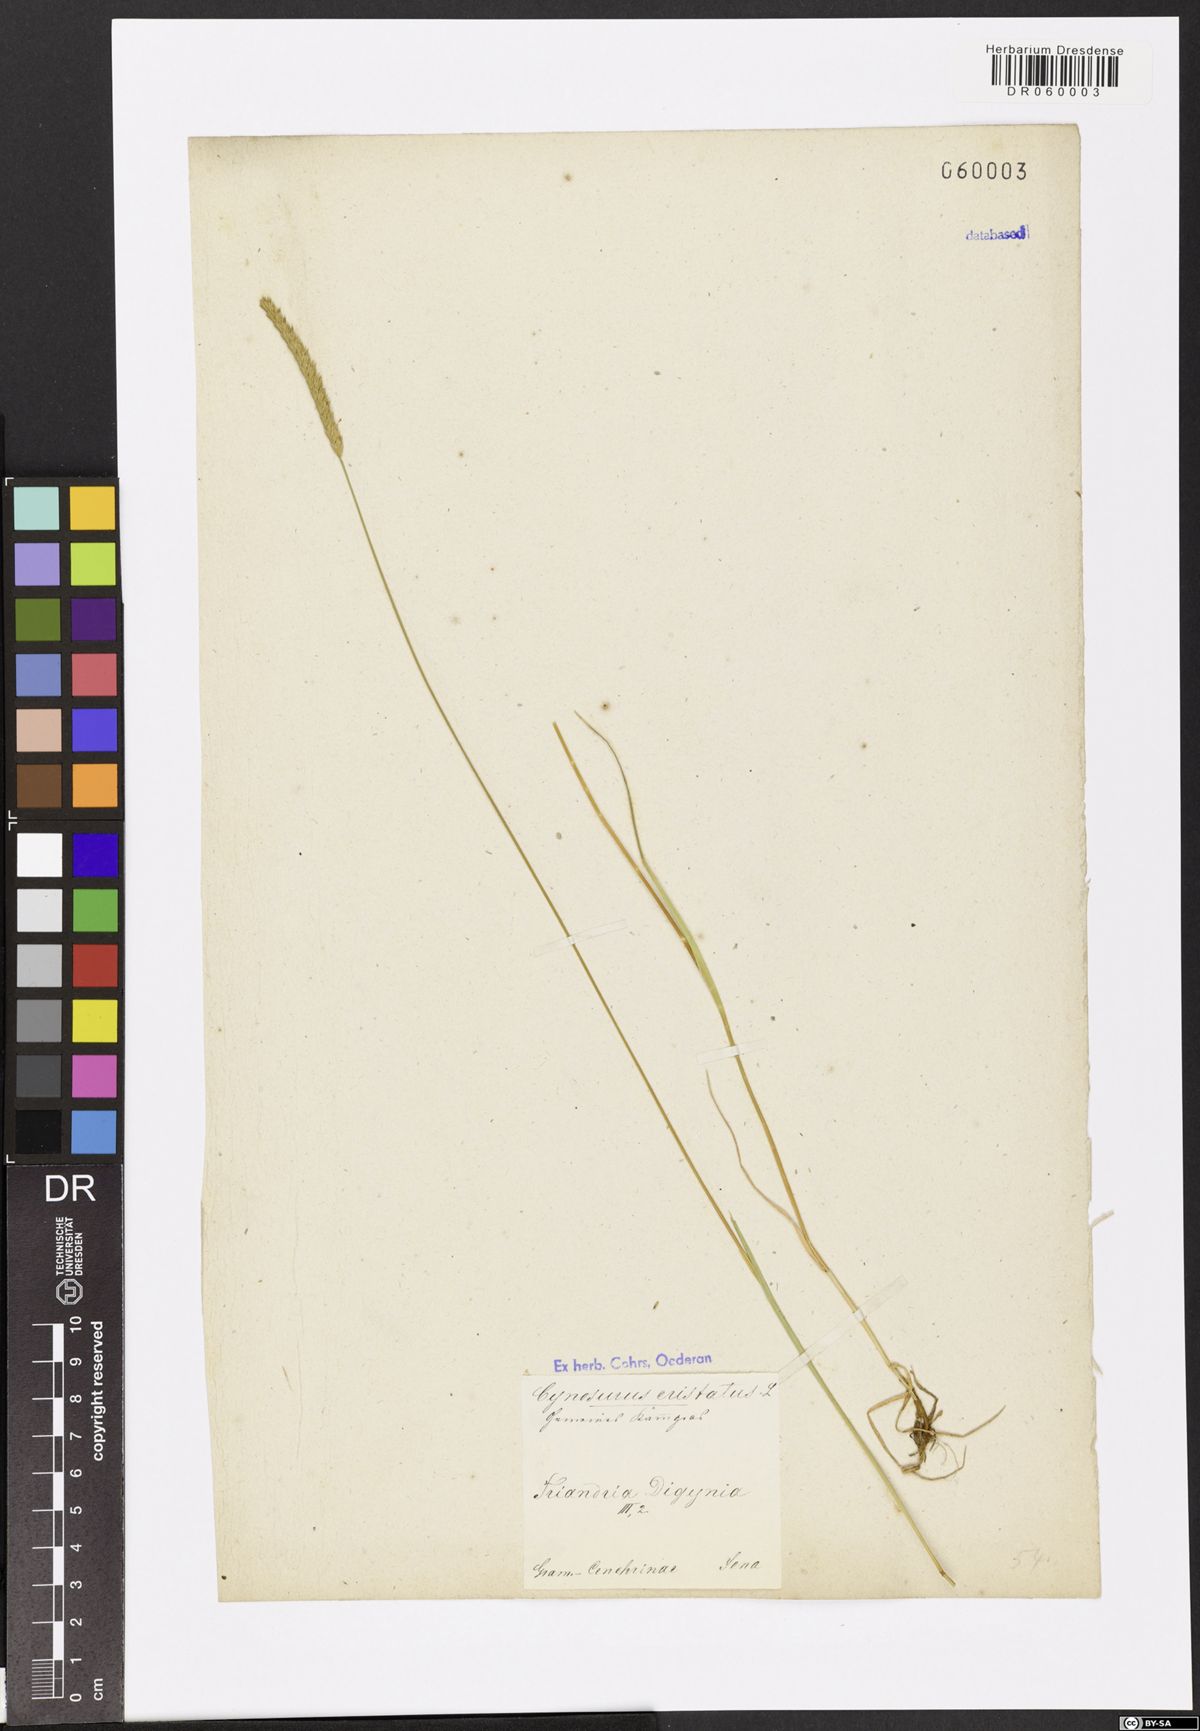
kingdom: Plantae
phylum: Tracheophyta
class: Liliopsida
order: Poales
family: Poaceae
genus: Cynosurus
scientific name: Cynosurus cristatus
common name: Crested dog's-tail
